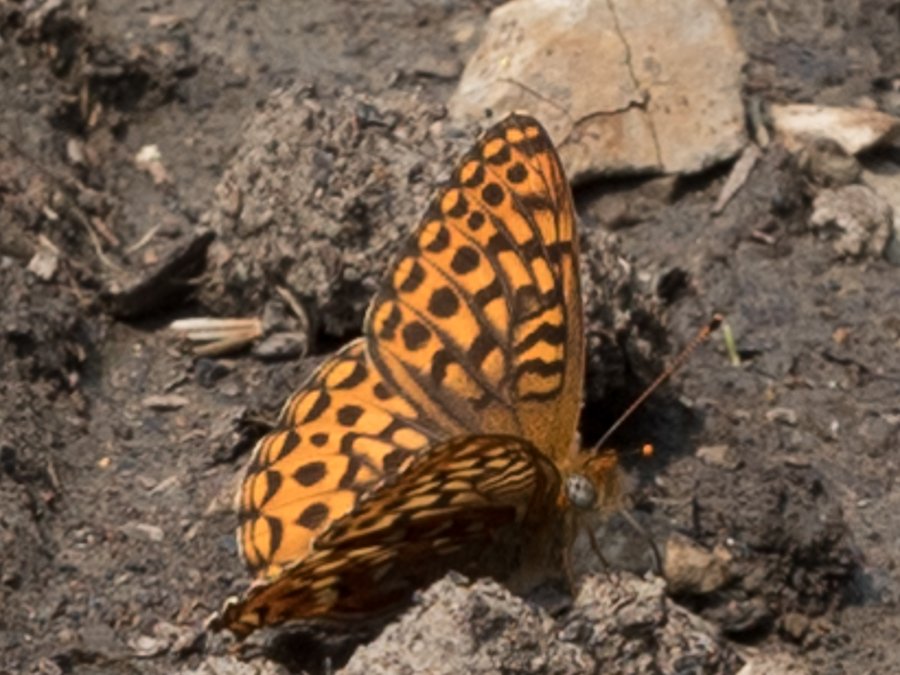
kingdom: Animalia
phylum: Arthropoda
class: Insecta
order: Lepidoptera
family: Nymphalidae
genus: Speyeria
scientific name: Speyeria hydaspe
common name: Hydaspe Fritillary
